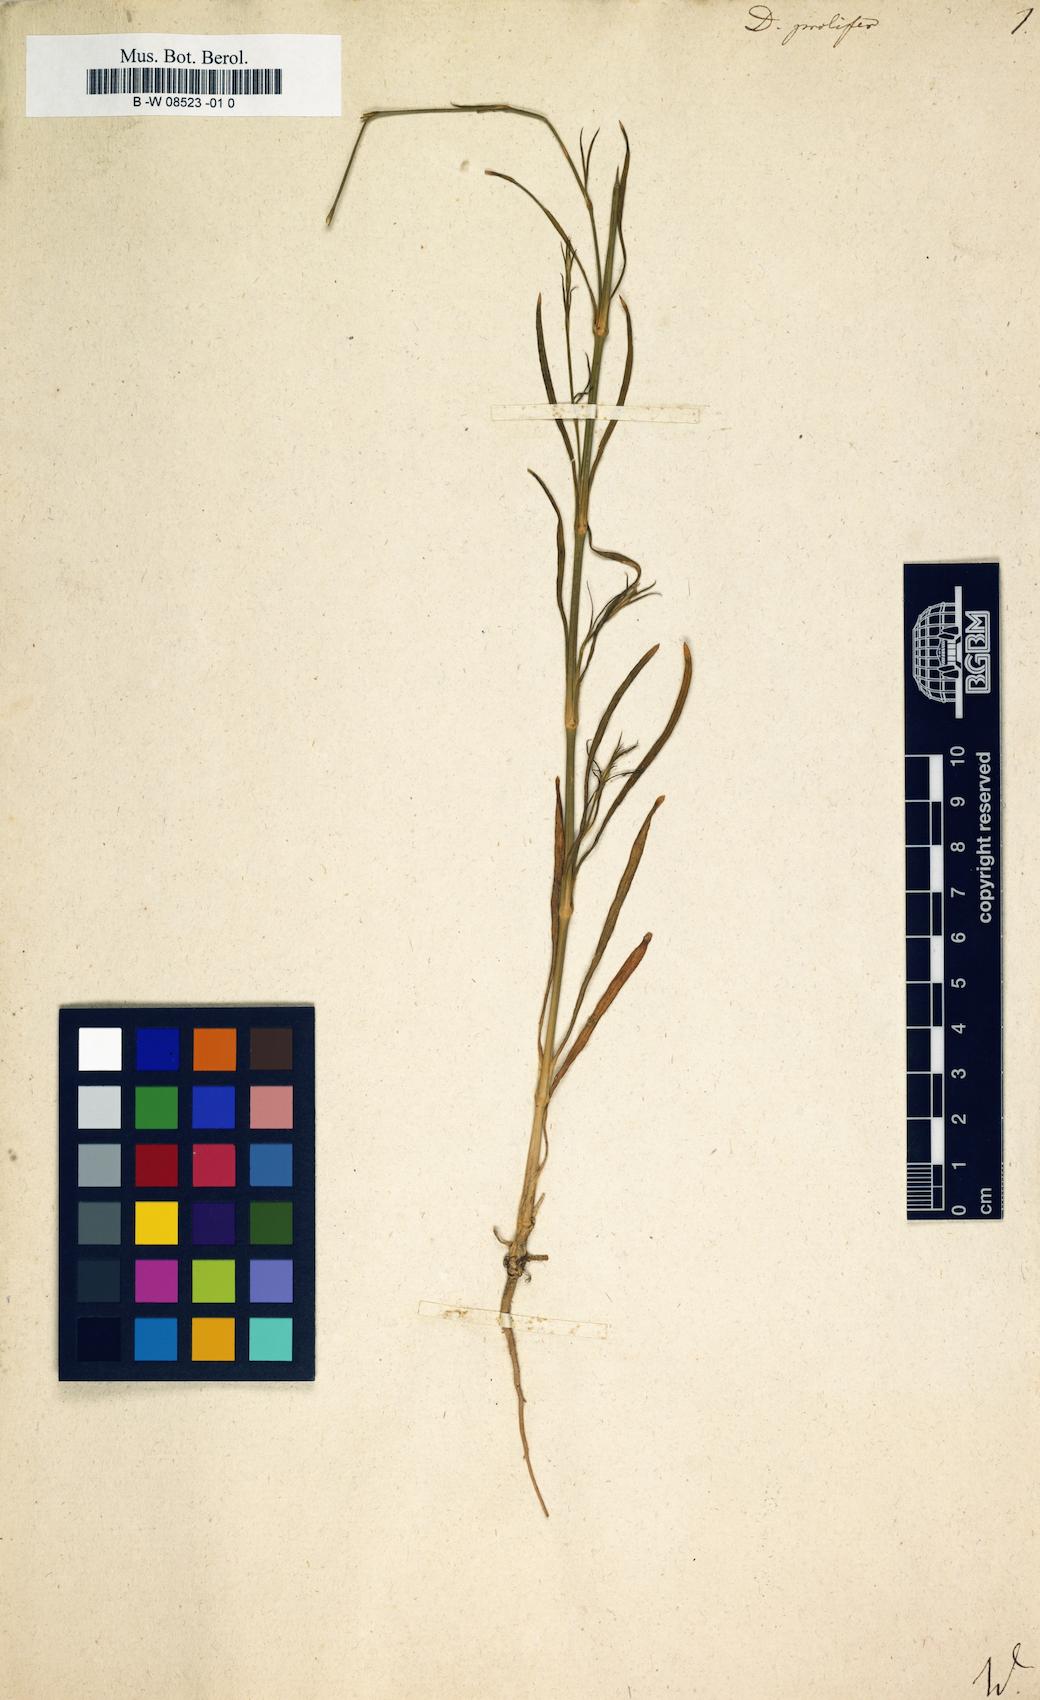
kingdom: Plantae
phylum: Tracheophyta
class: Magnoliopsida
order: Caryophyllales
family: Caryophyllaceae
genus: Dianthus
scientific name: Dianthus prolifer
